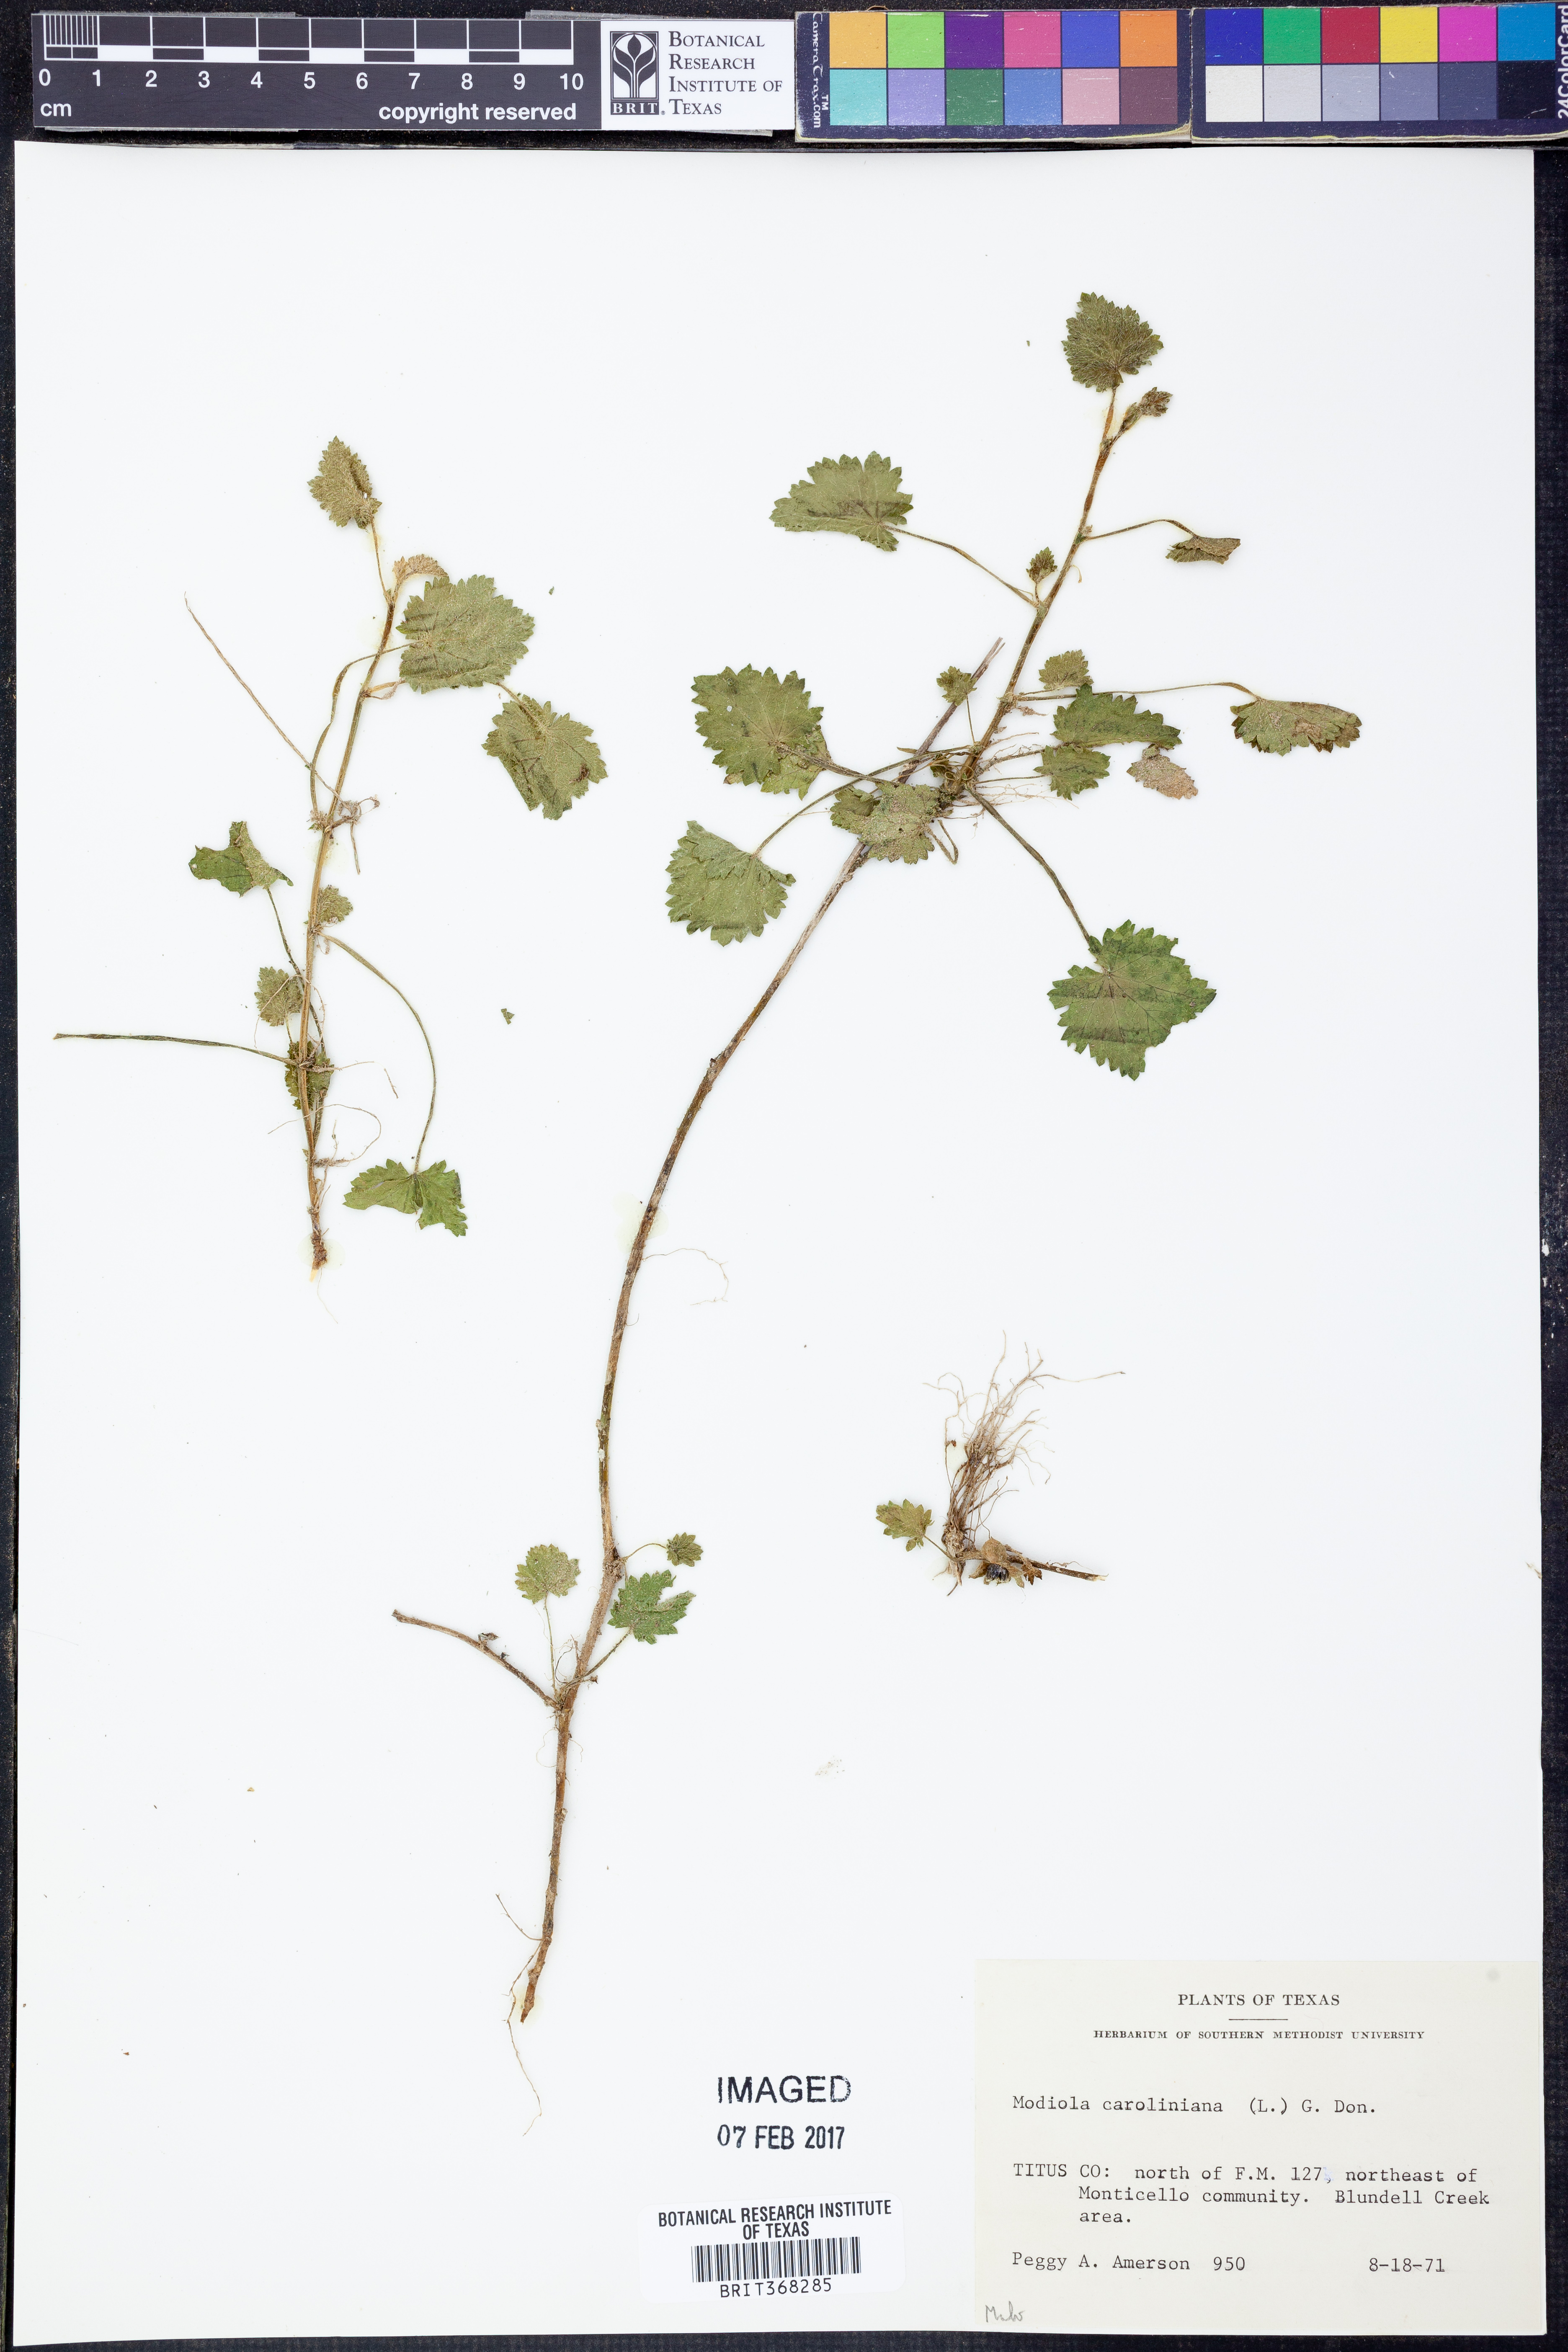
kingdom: Plantae
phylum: Tracheophyta
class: Magnoliopsida
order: Malvales
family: Malvaceae
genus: Modiola
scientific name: Modiola caroliniana
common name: Carolina bristlemallow
